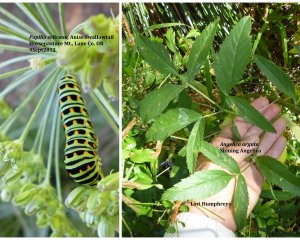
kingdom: Animalia
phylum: Arthropoda
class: Insecta
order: Lepidoptera
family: Papilionidae
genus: Papilio
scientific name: Papilio zelicaon
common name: Anise Swallowtail
